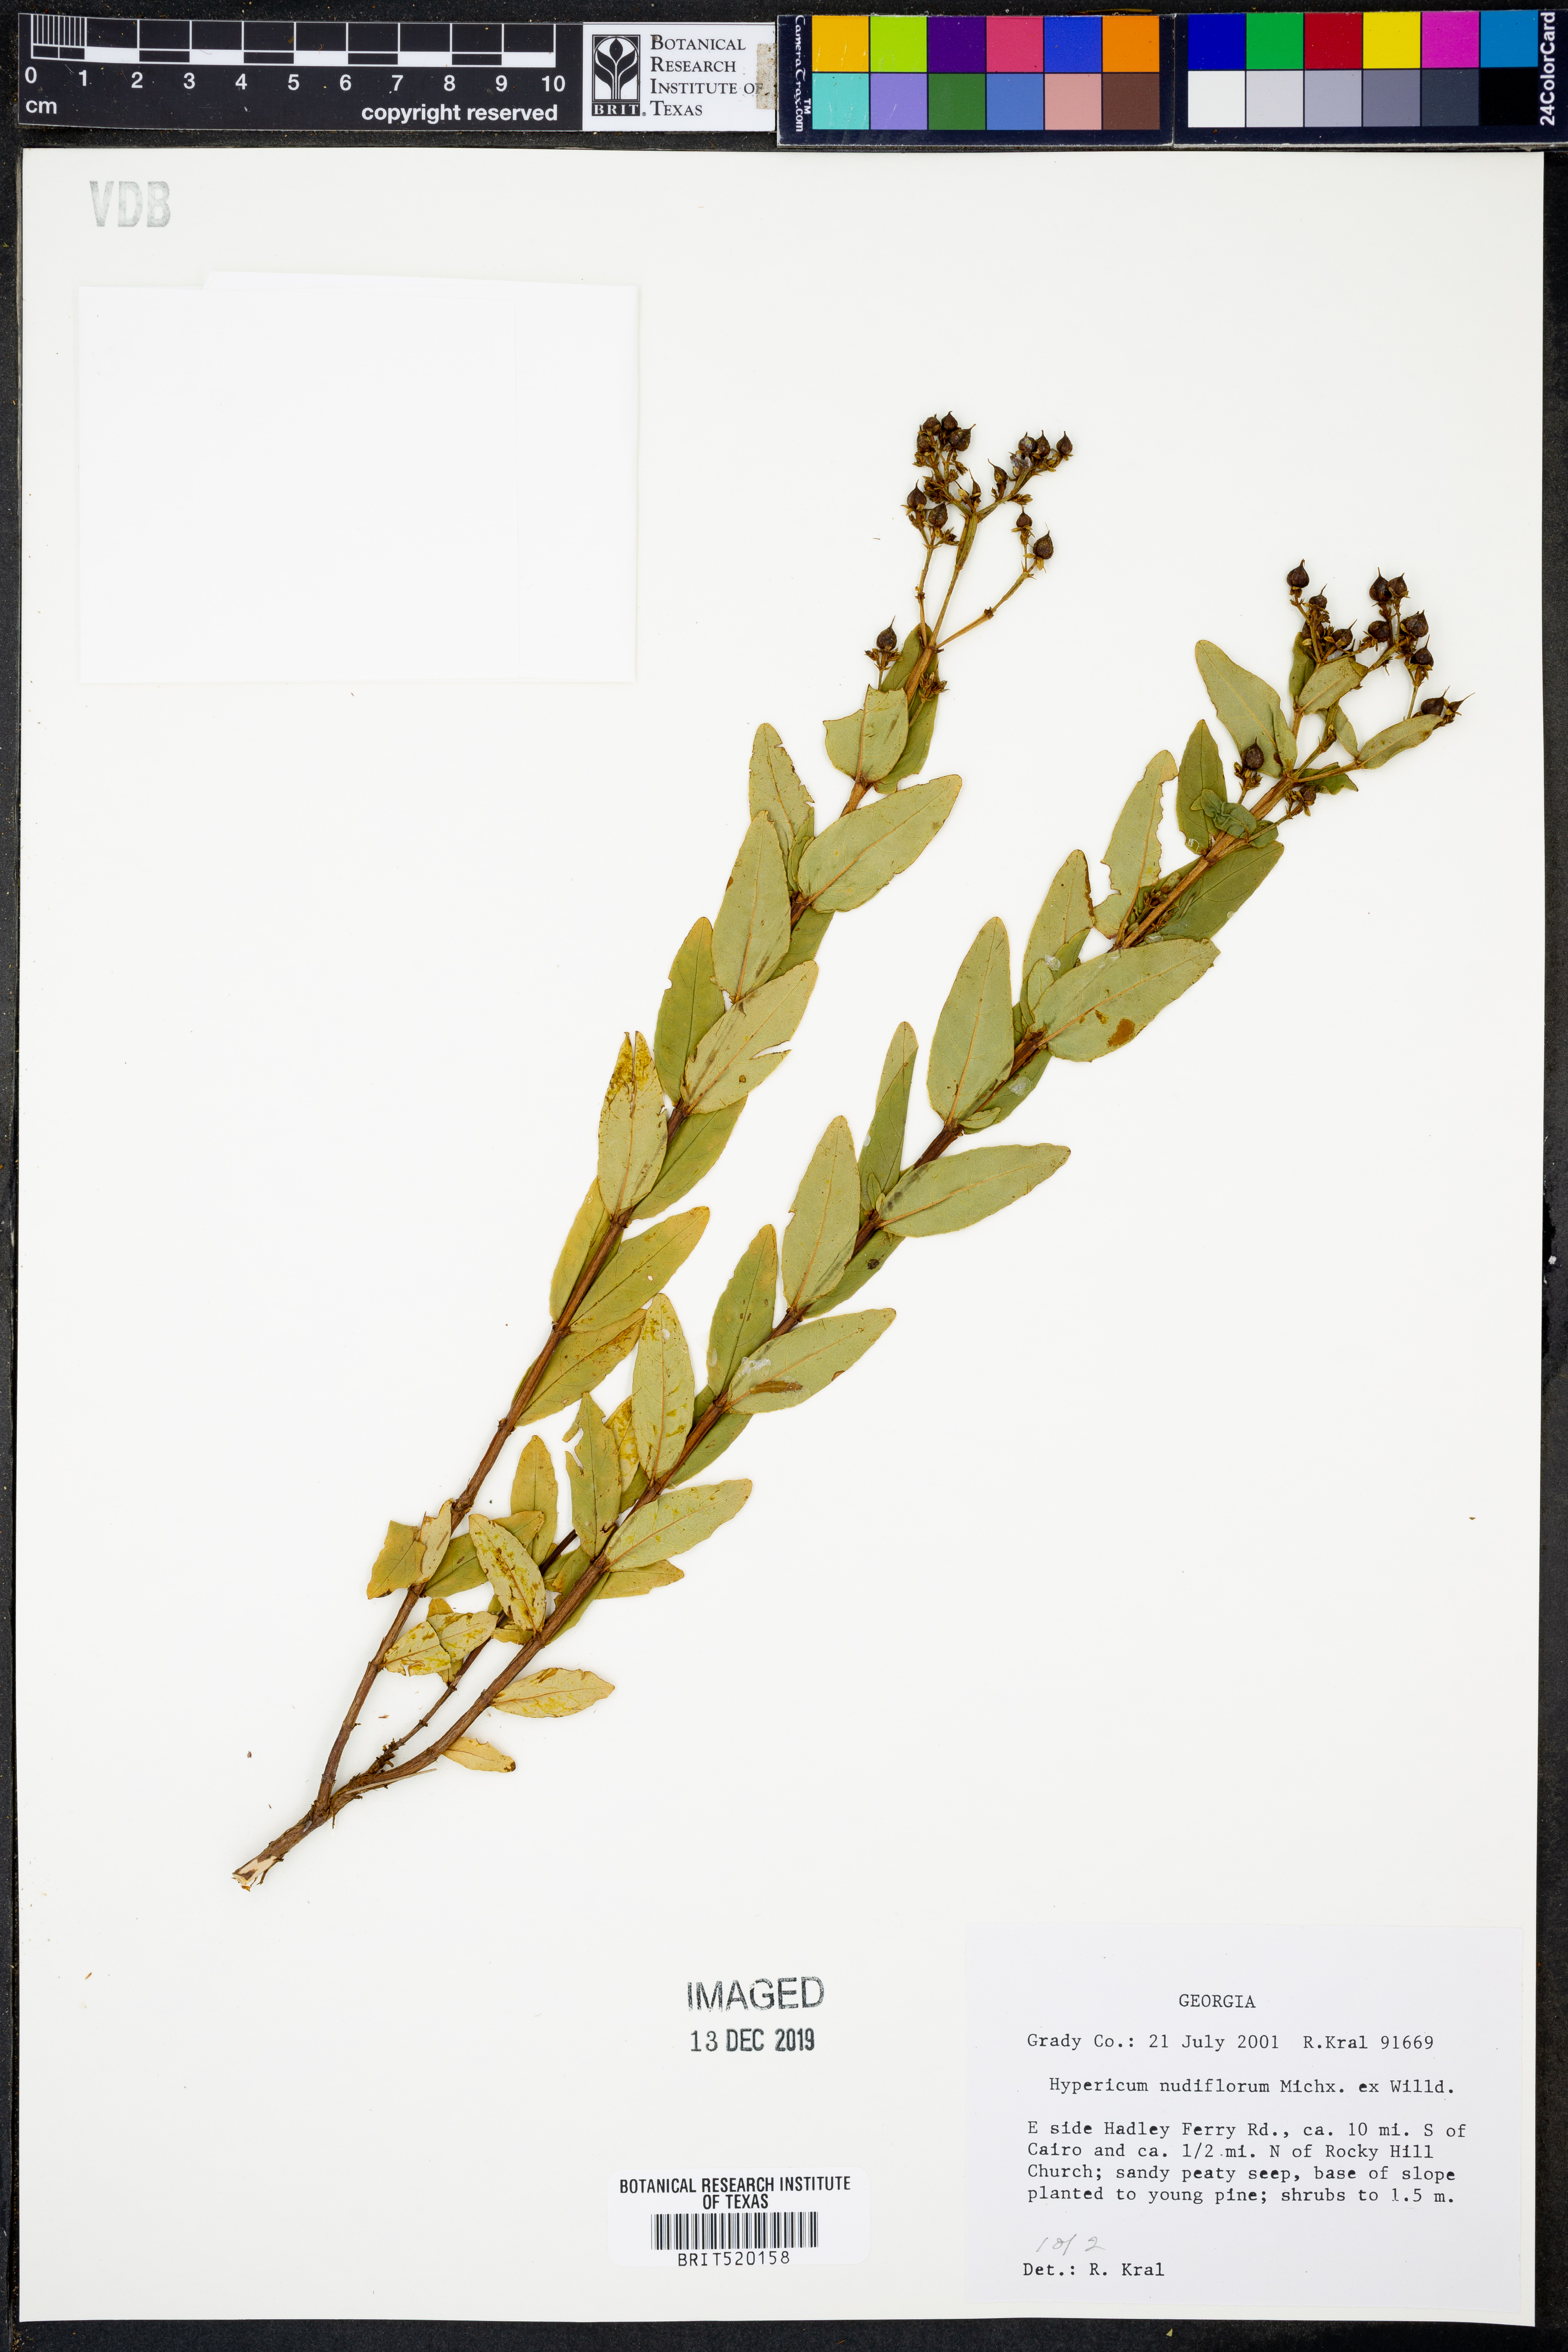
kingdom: Plantae
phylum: Tracheophyta
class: Magnoliopsida
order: Malpighiales
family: Hypericaceae
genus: Hypericum
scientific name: Hypericum nudiflorum
